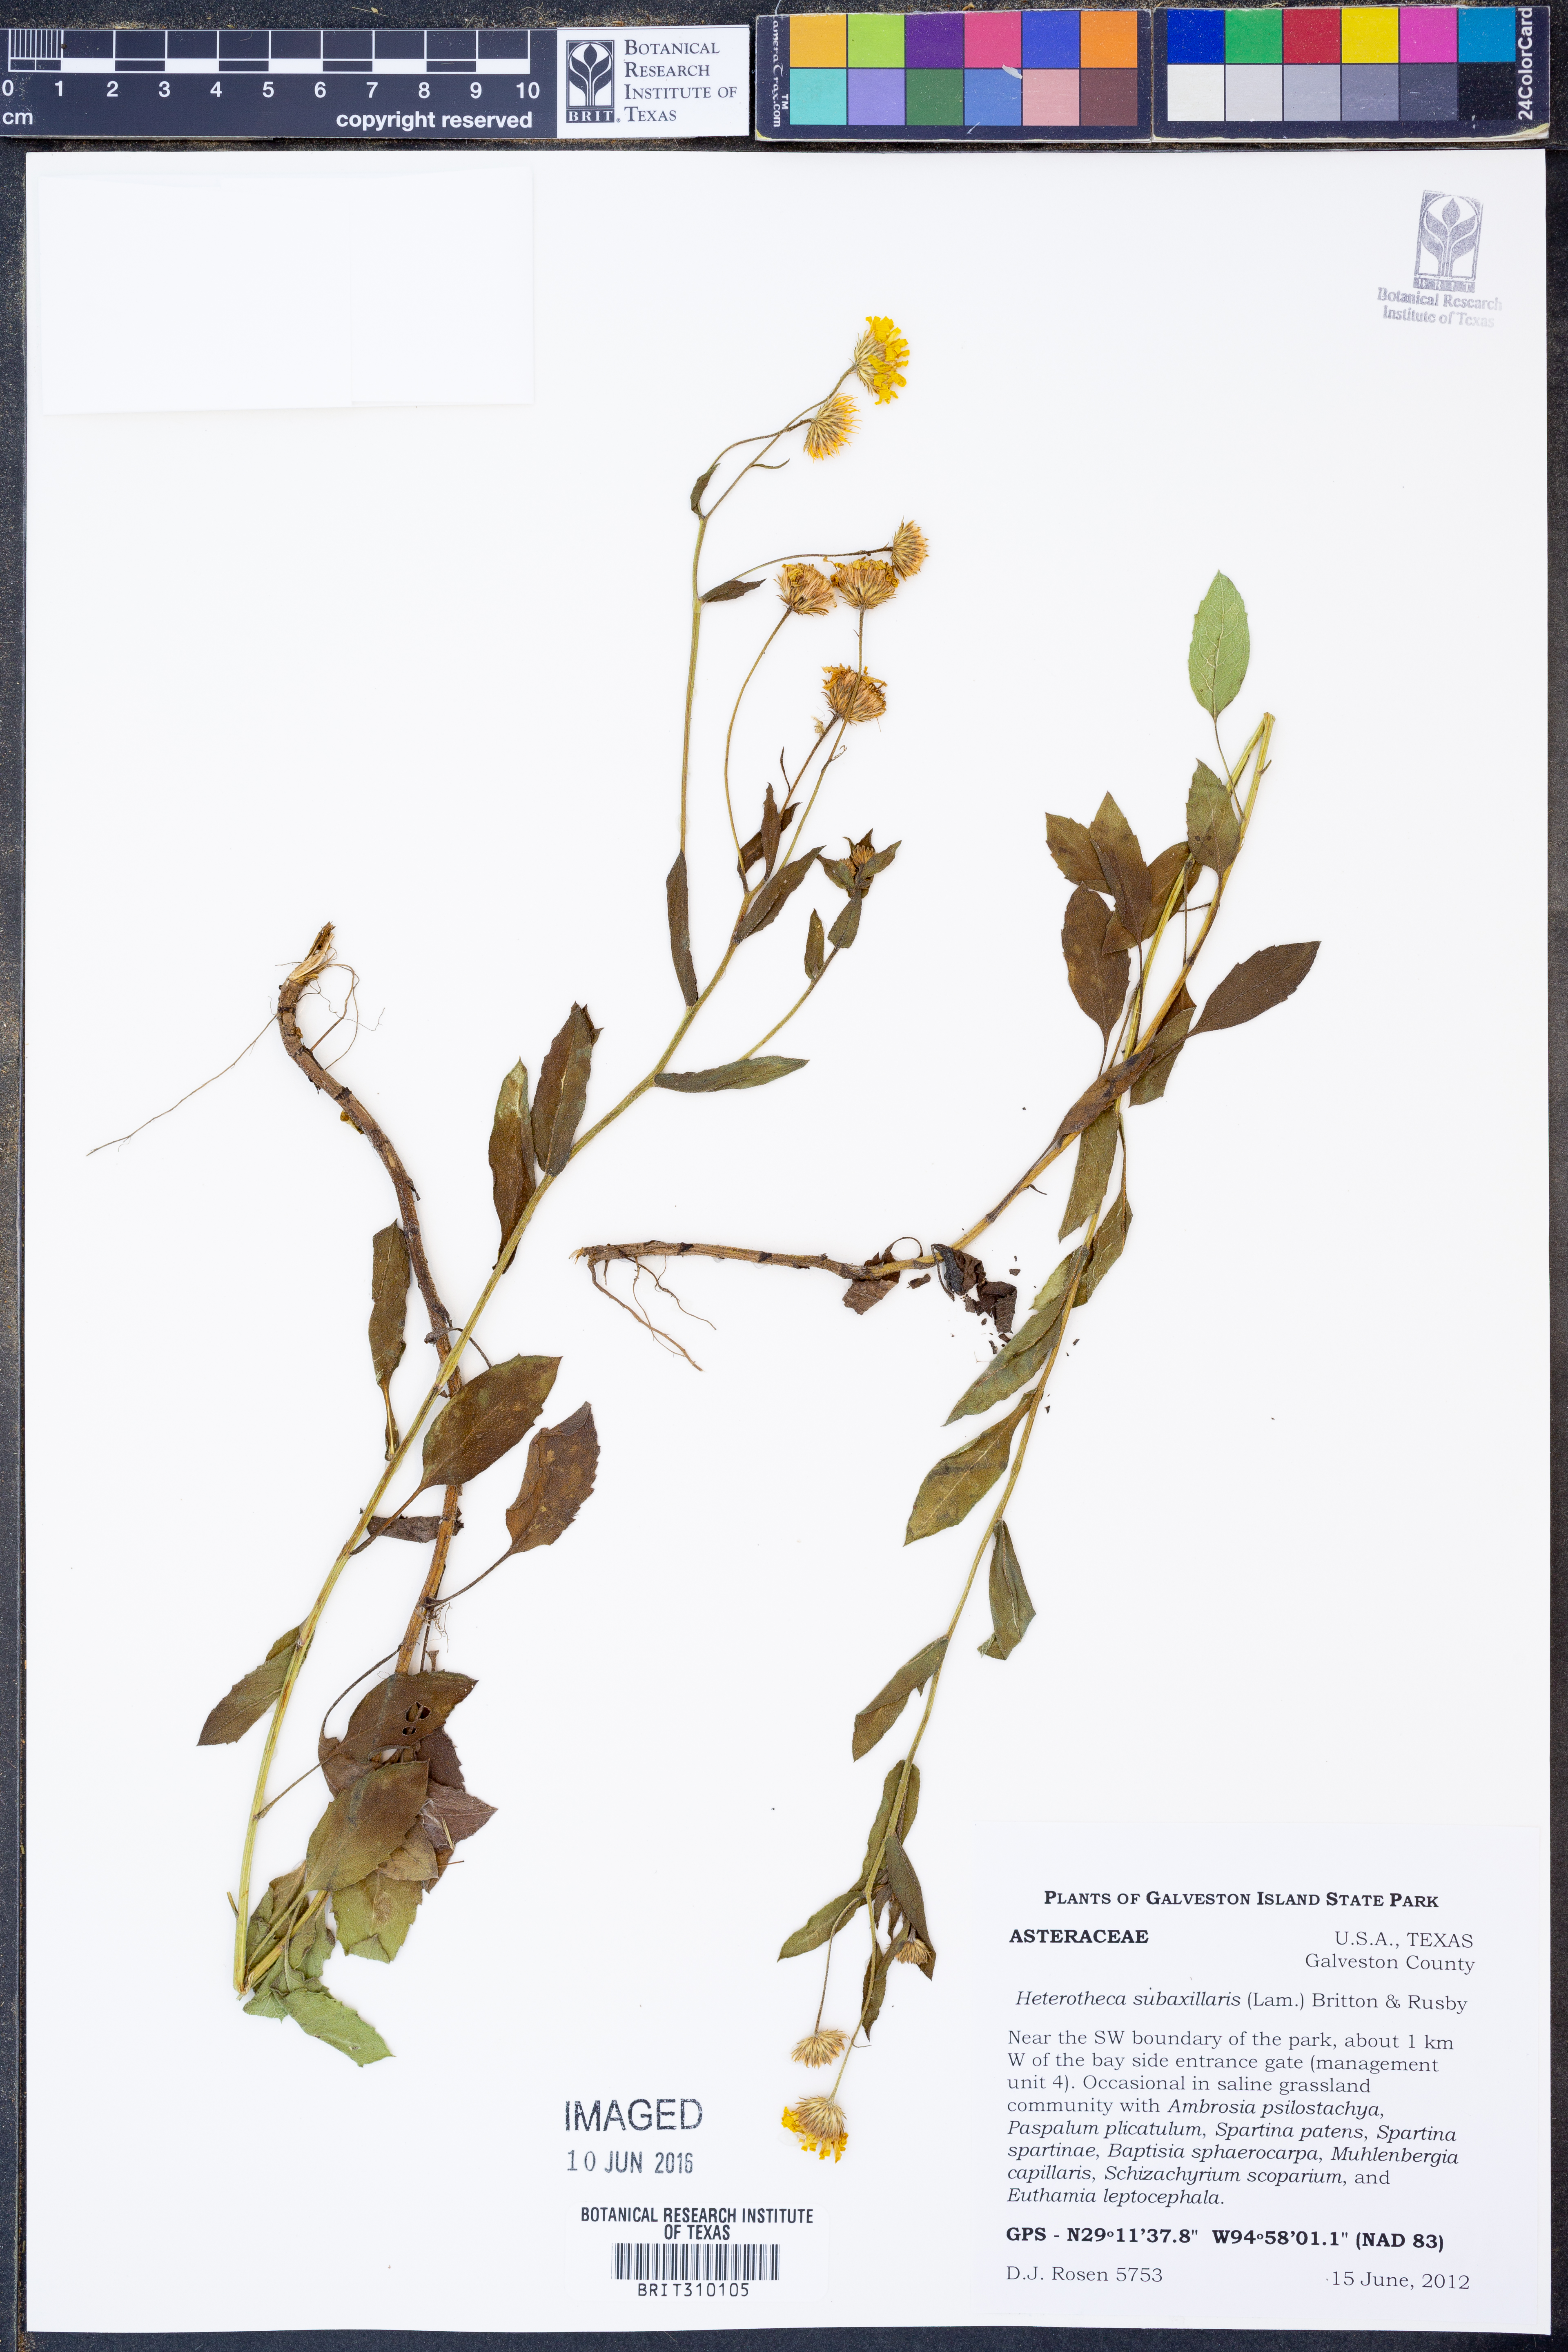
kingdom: Plantae
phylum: Tracheophyta
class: Magnoliopsida
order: Asterales
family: Asteraceae
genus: Heterotheca
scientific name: Heterotheca subaxillaris
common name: Camphorweed
